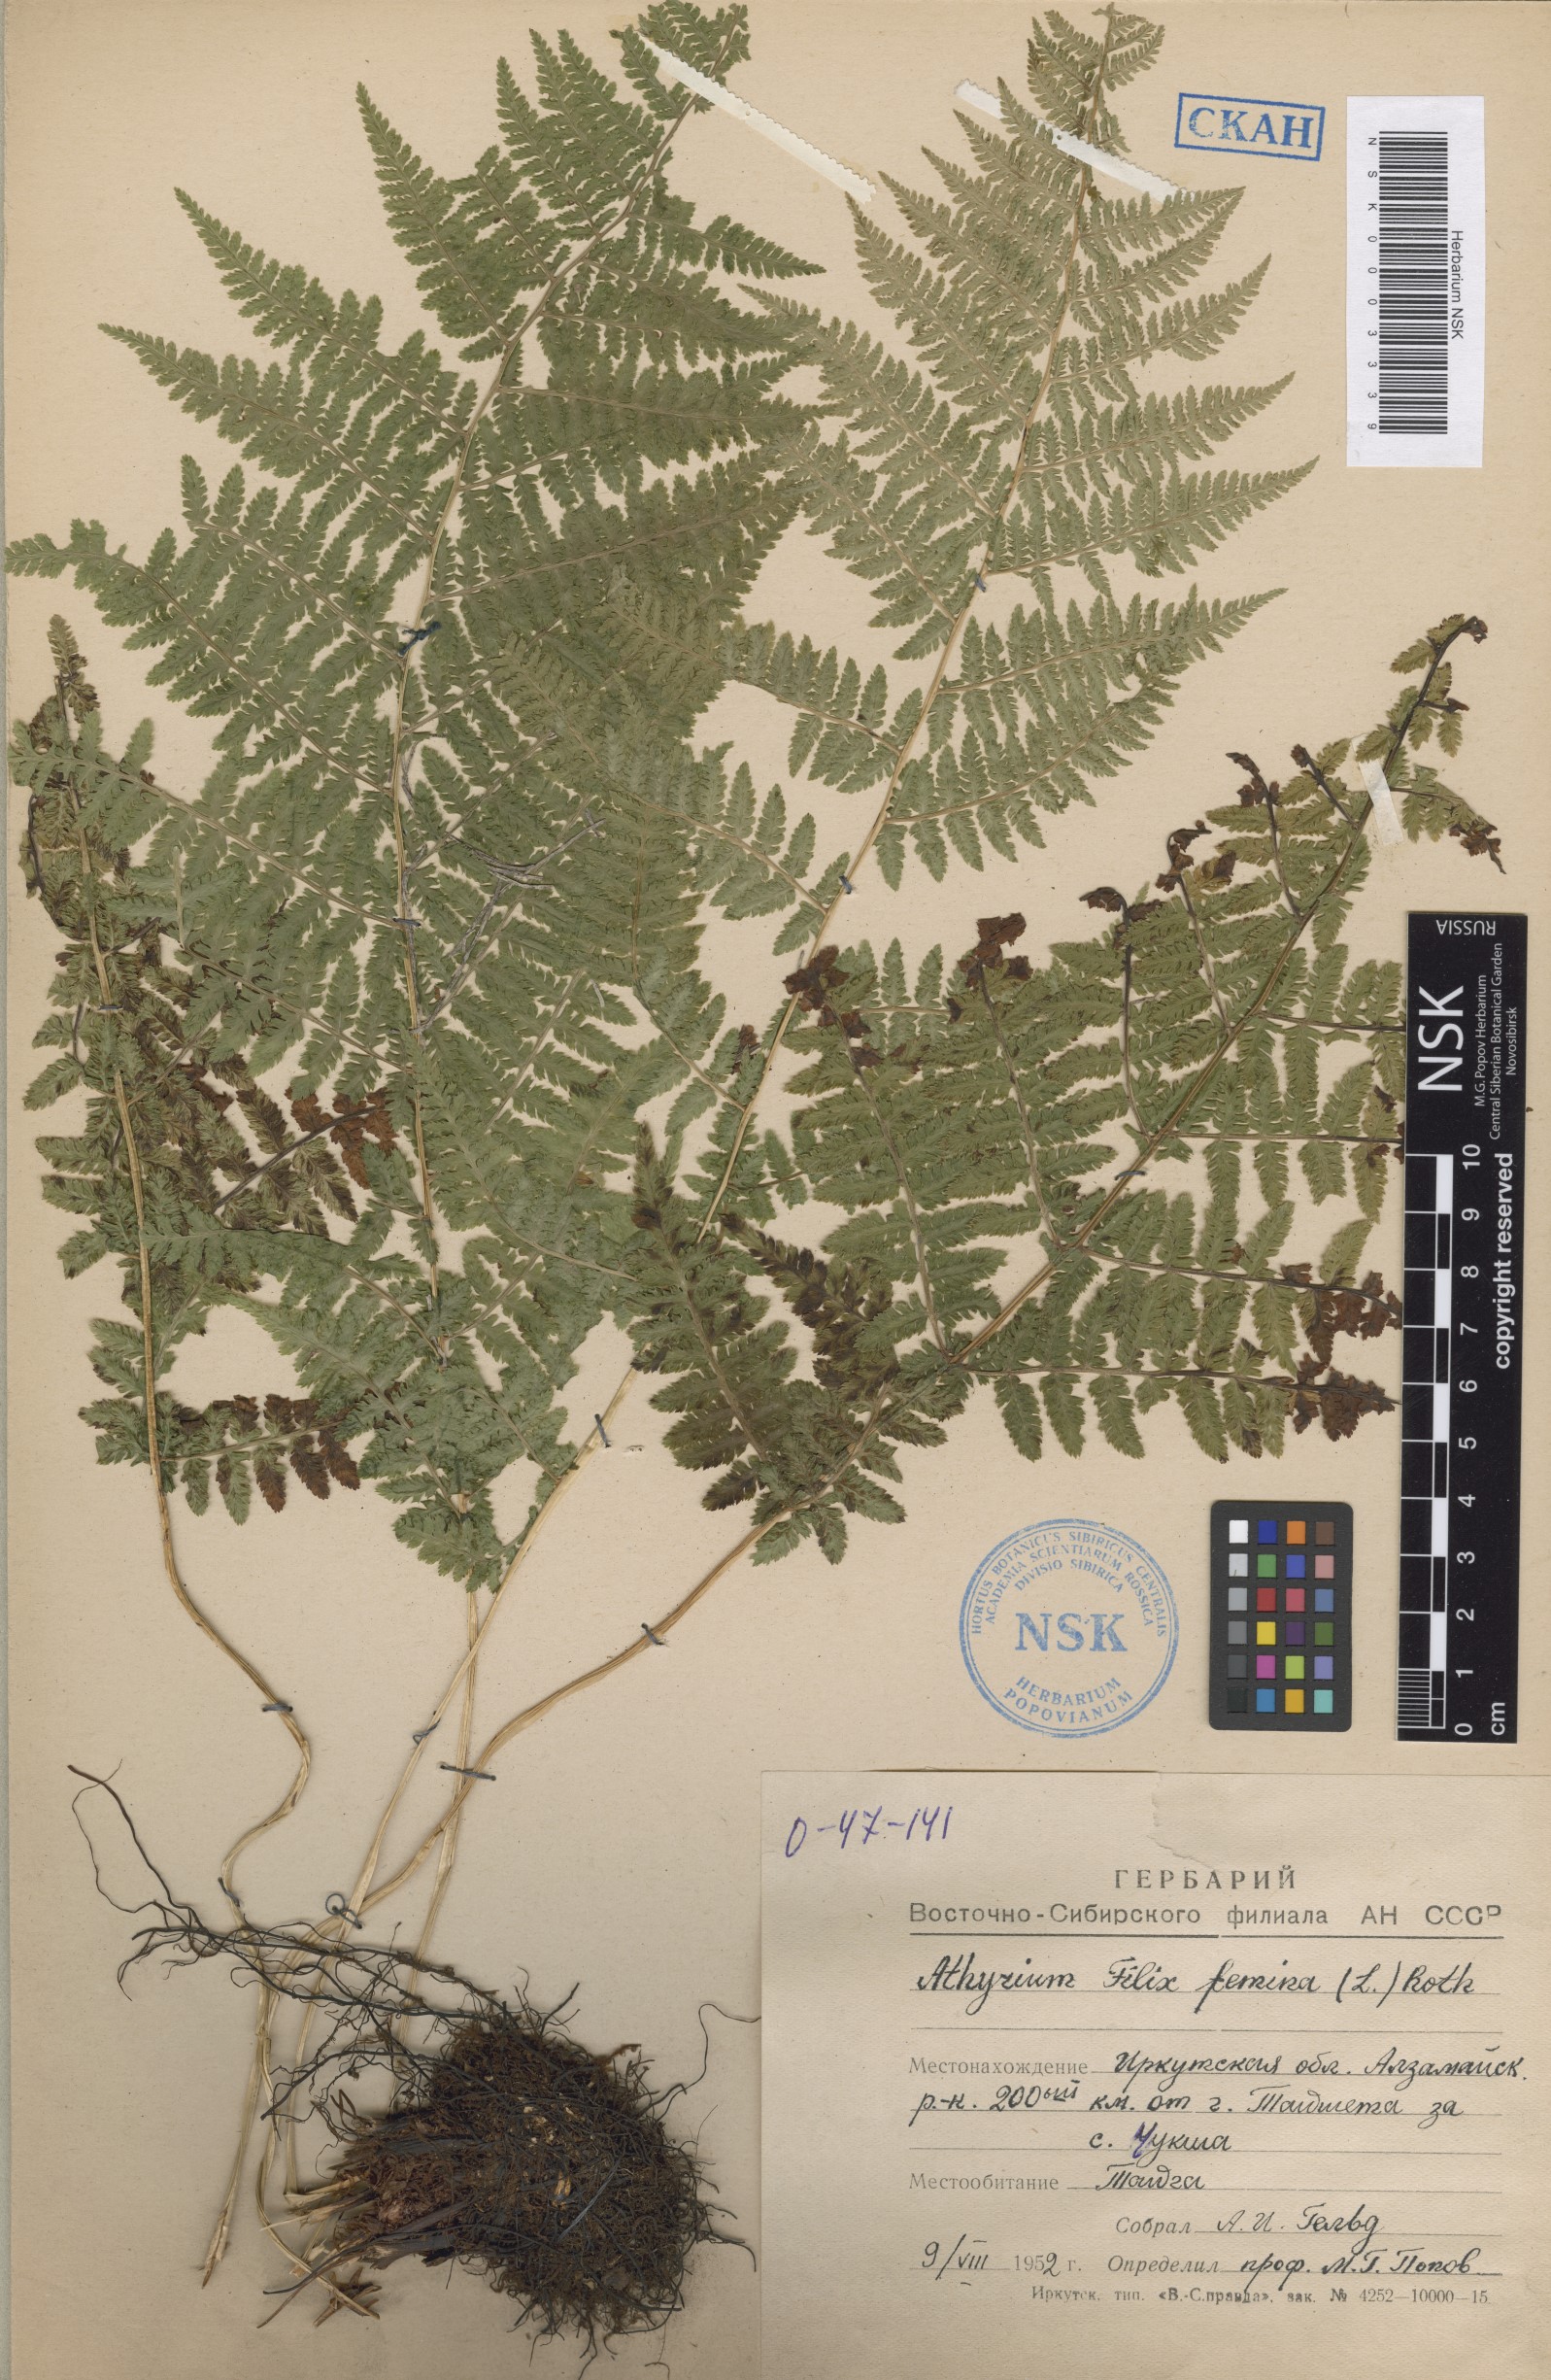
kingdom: Plantae
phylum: Tracheophyta
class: Polypodiopsida
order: Polypodiales
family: Athyriaceae
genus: Athyrium
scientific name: Athyrium filix-femina
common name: Lady fern
